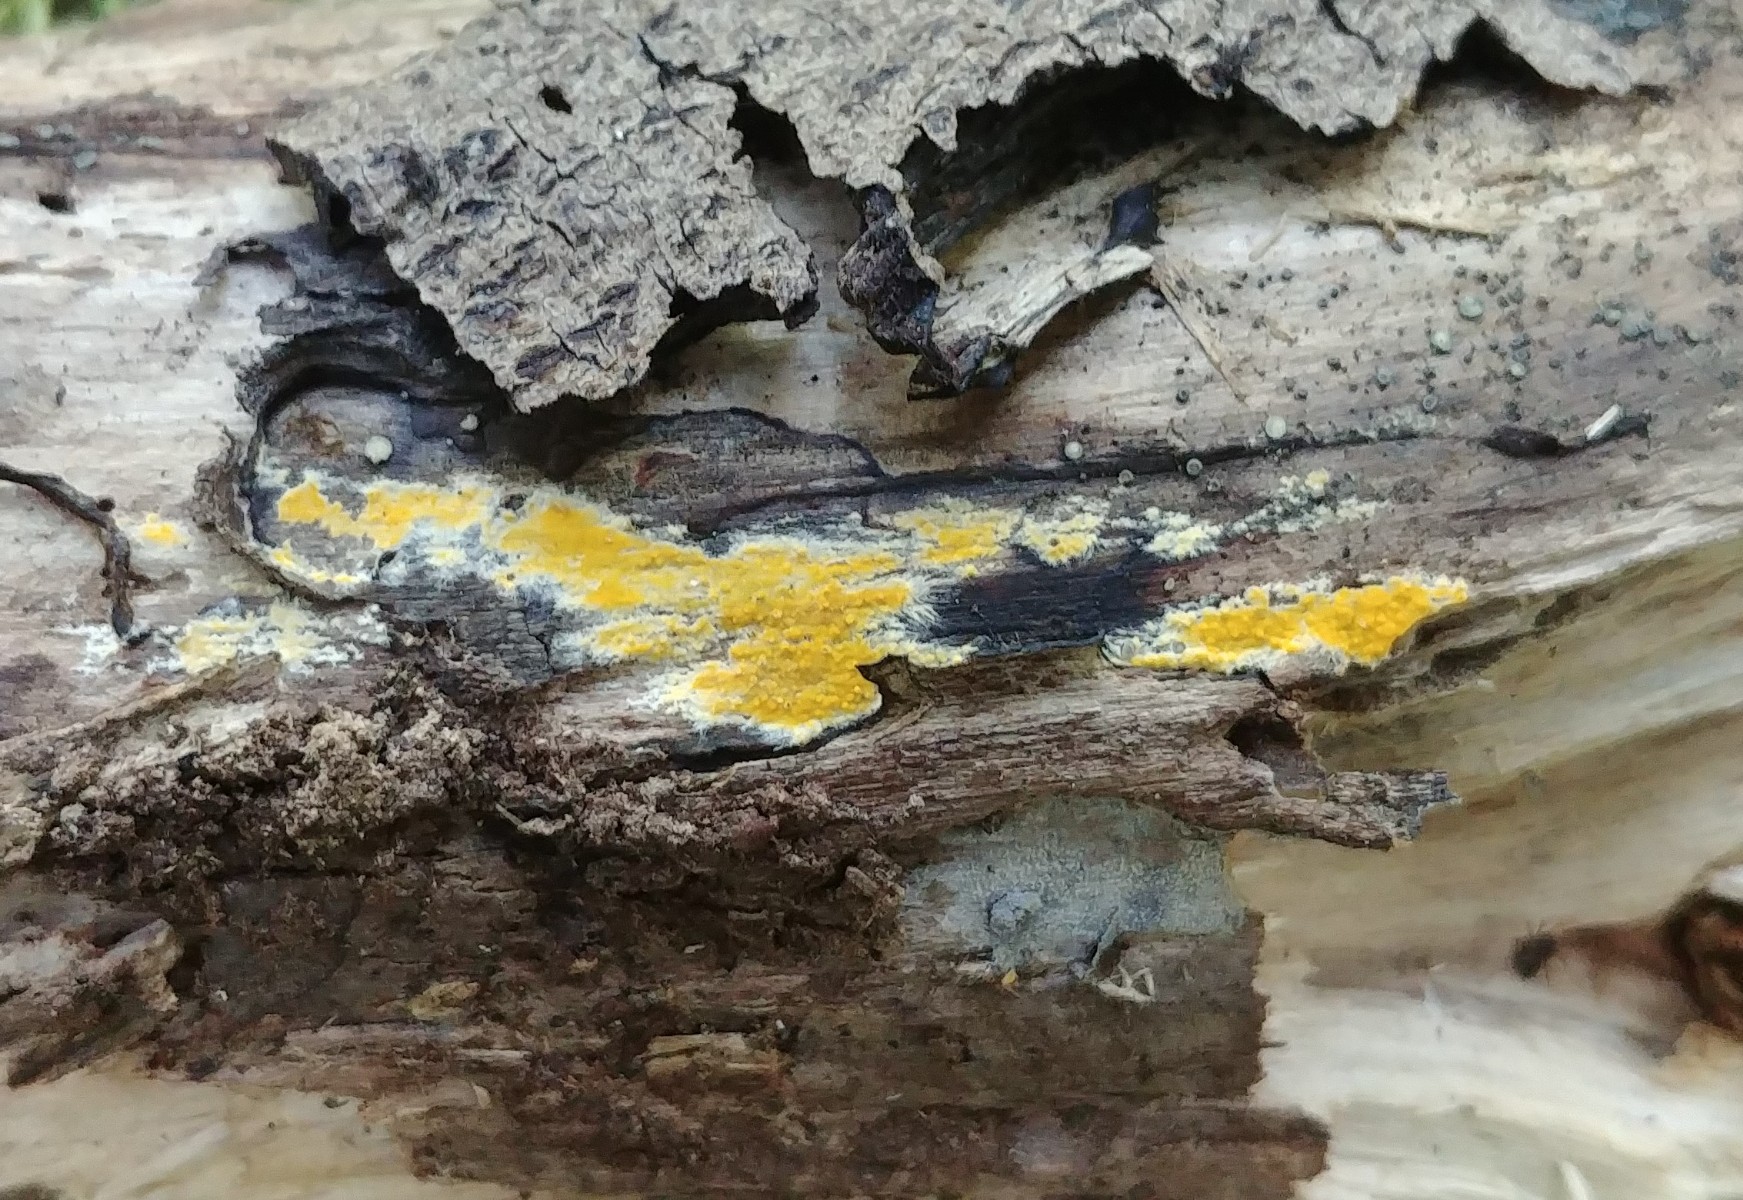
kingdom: Fungi
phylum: Basidiomycota
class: Agaricomycetes
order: Polyporales
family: Meruliaceae
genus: Phlebiodontia
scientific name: Phlebiodontia subochracea
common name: svovl-åresvamp
